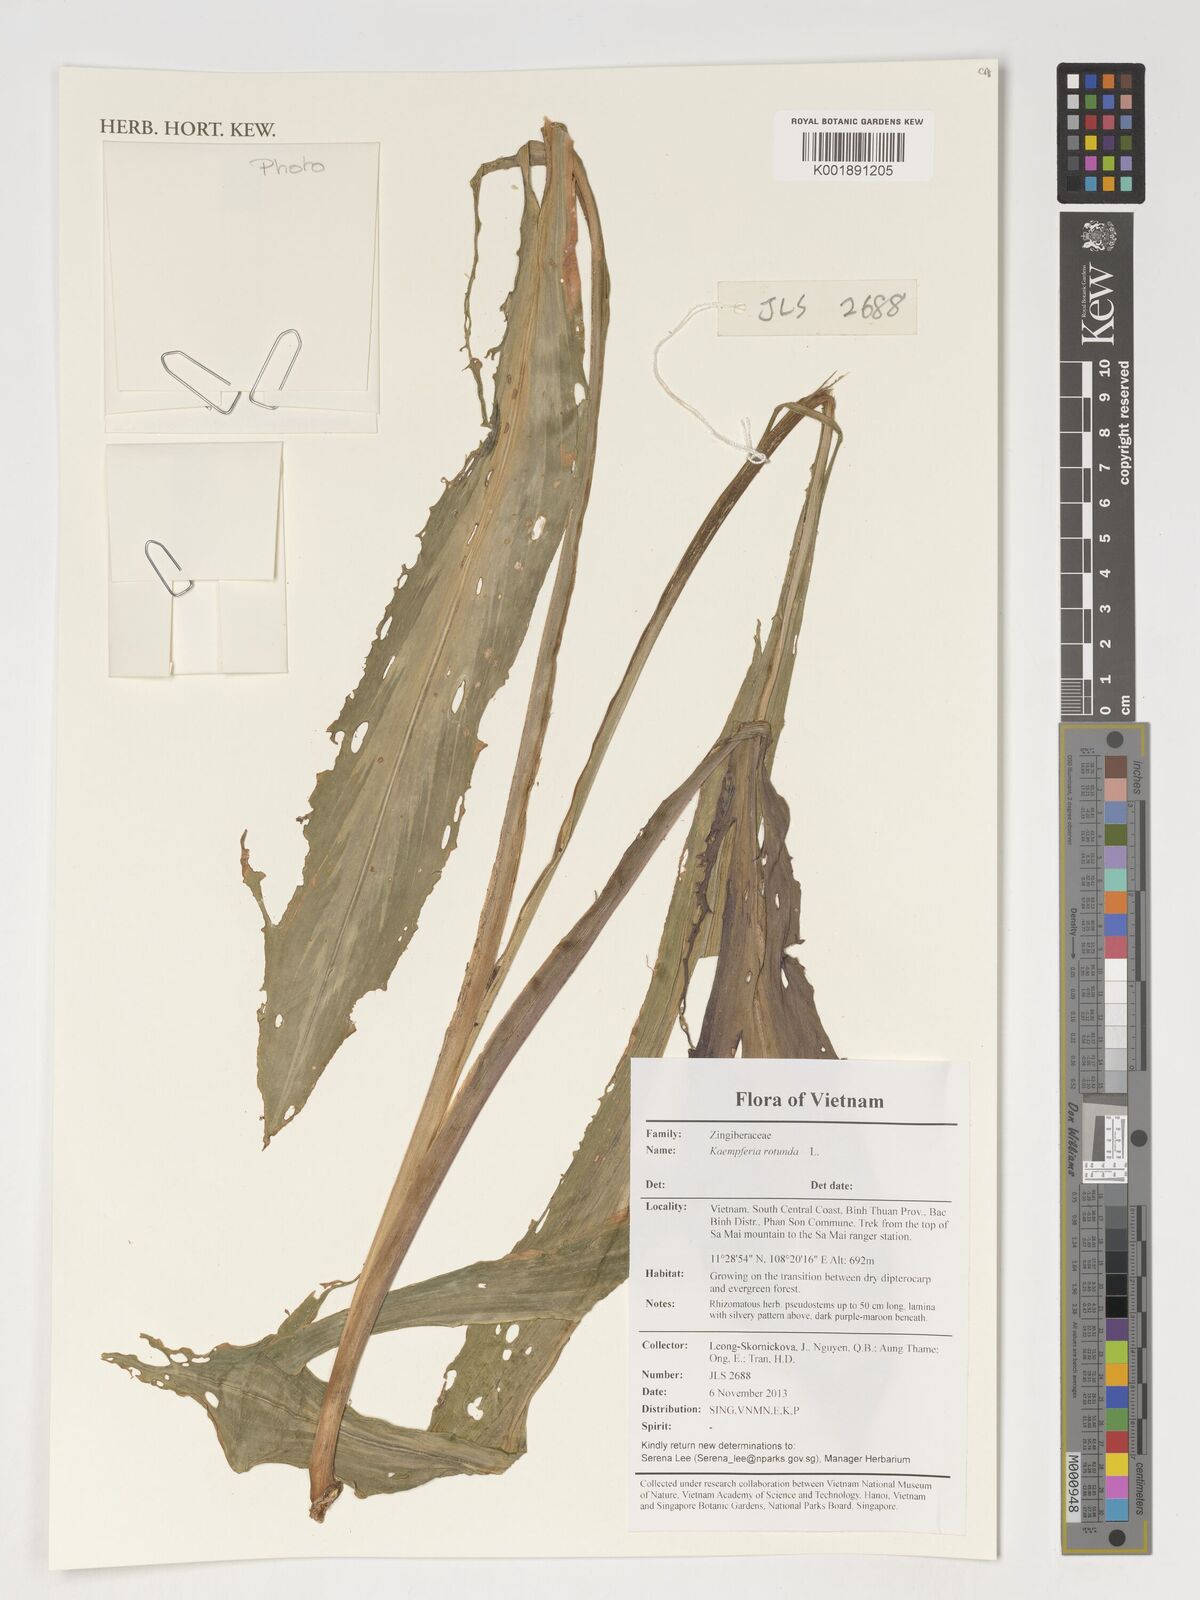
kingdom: Plantae
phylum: Tracheophyta
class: Liliopsida
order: Zingiberales
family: Zingiberaceae
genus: Kaempferia
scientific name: Kaempferia rotunda
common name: Tropical-crocus
